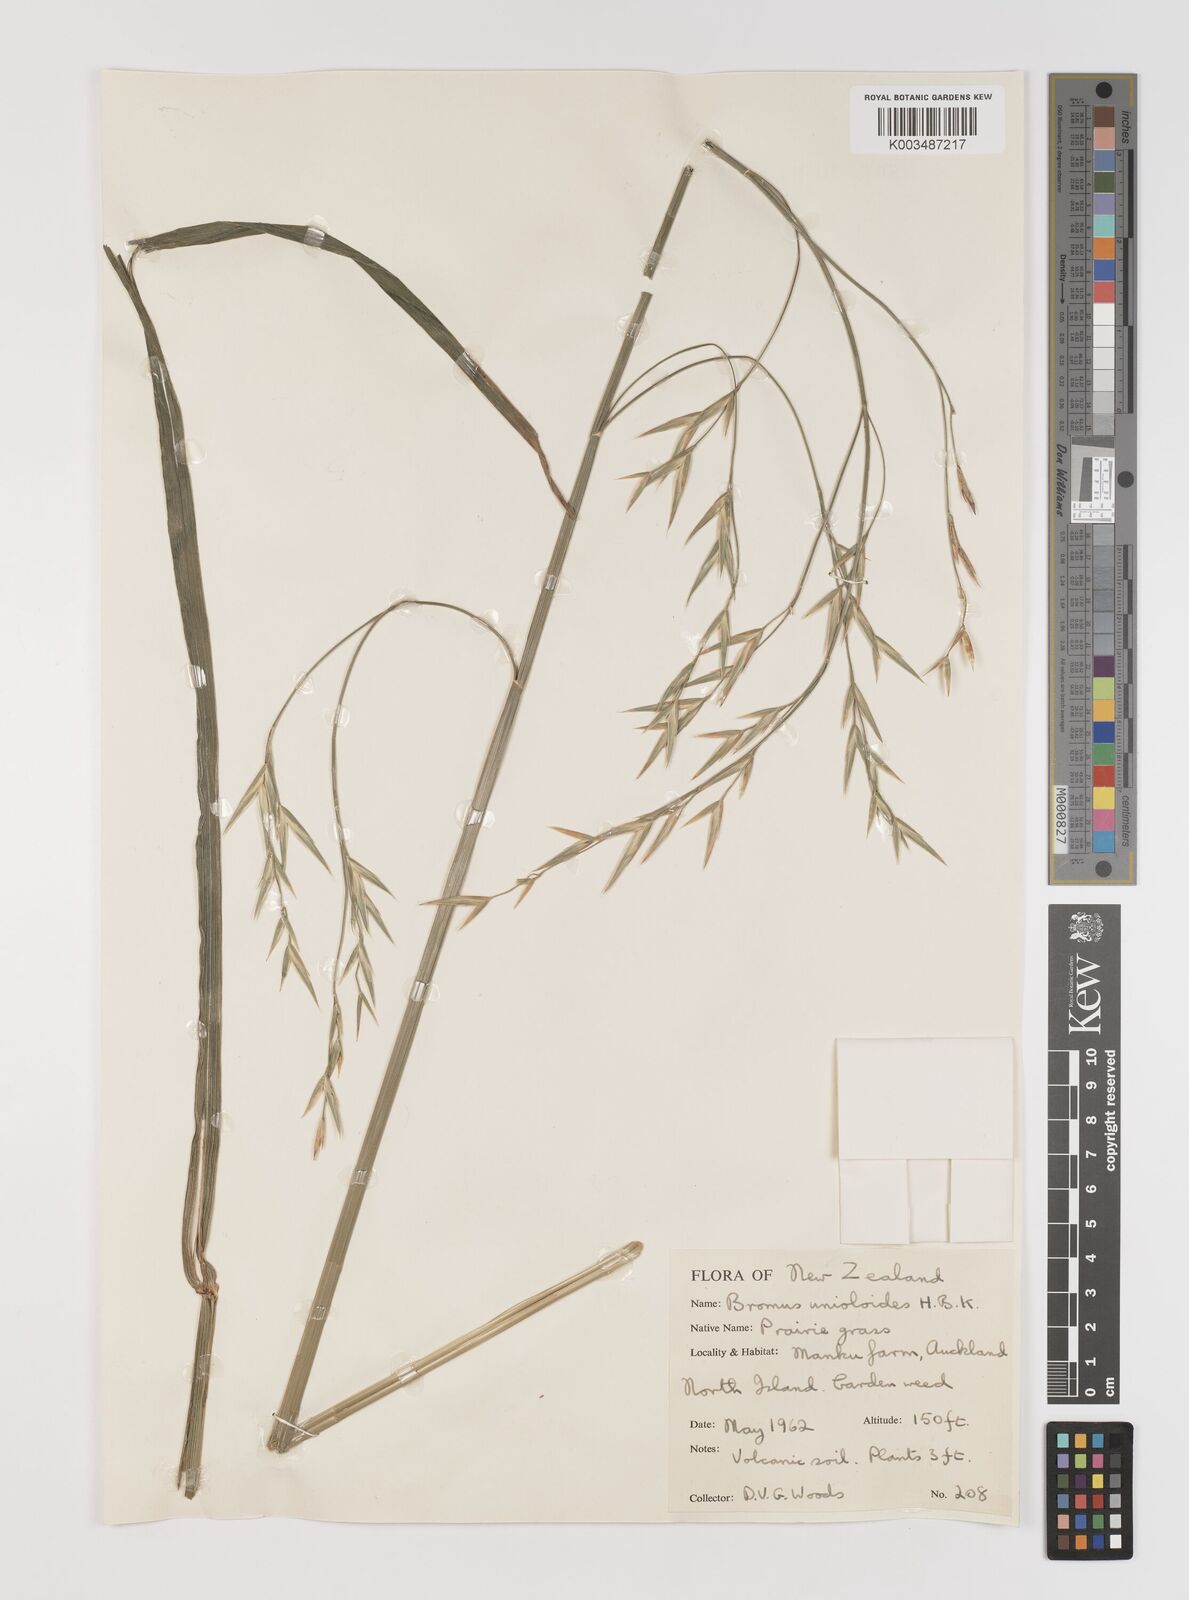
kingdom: Plantae
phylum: Tracheophyta
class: Liliopsida
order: Poales
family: Poaceae
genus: Bromus
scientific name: Bromus catharticus
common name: Rescuegrass
